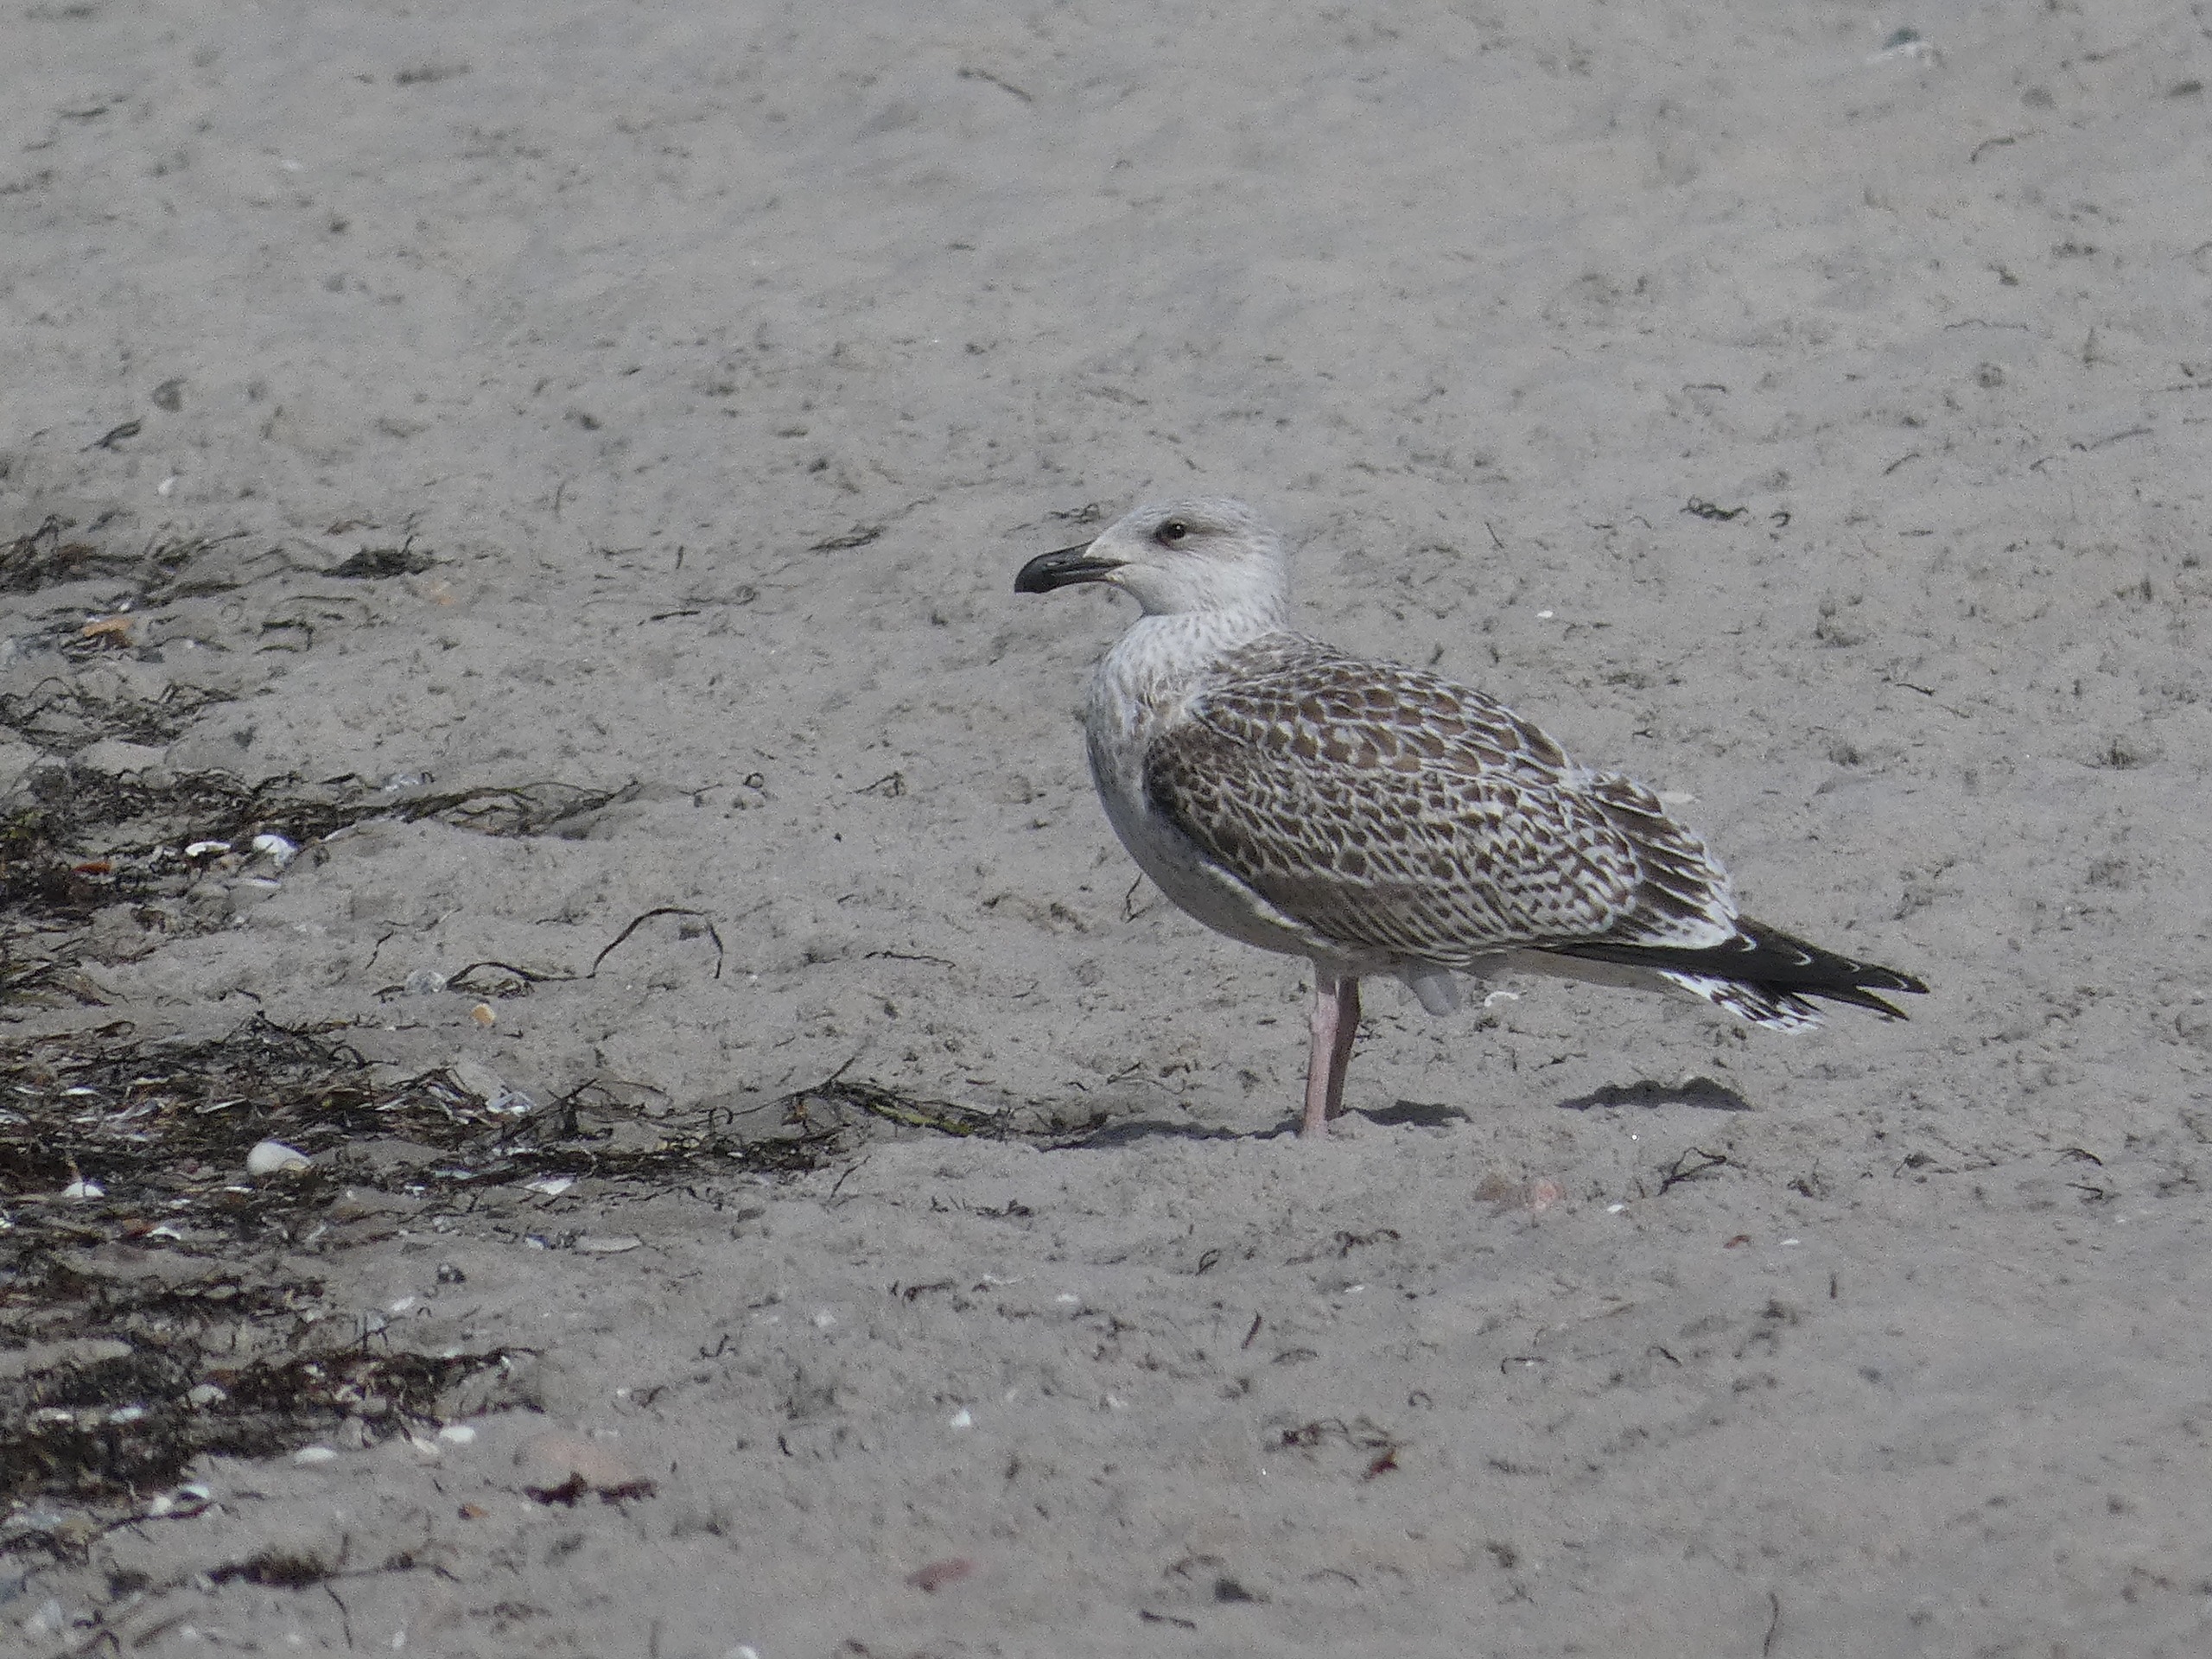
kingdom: Animalia
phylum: Chordata
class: Aves
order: Charadriiformes
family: Laridae
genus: Larus
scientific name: Larus marinus
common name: Svartbag
